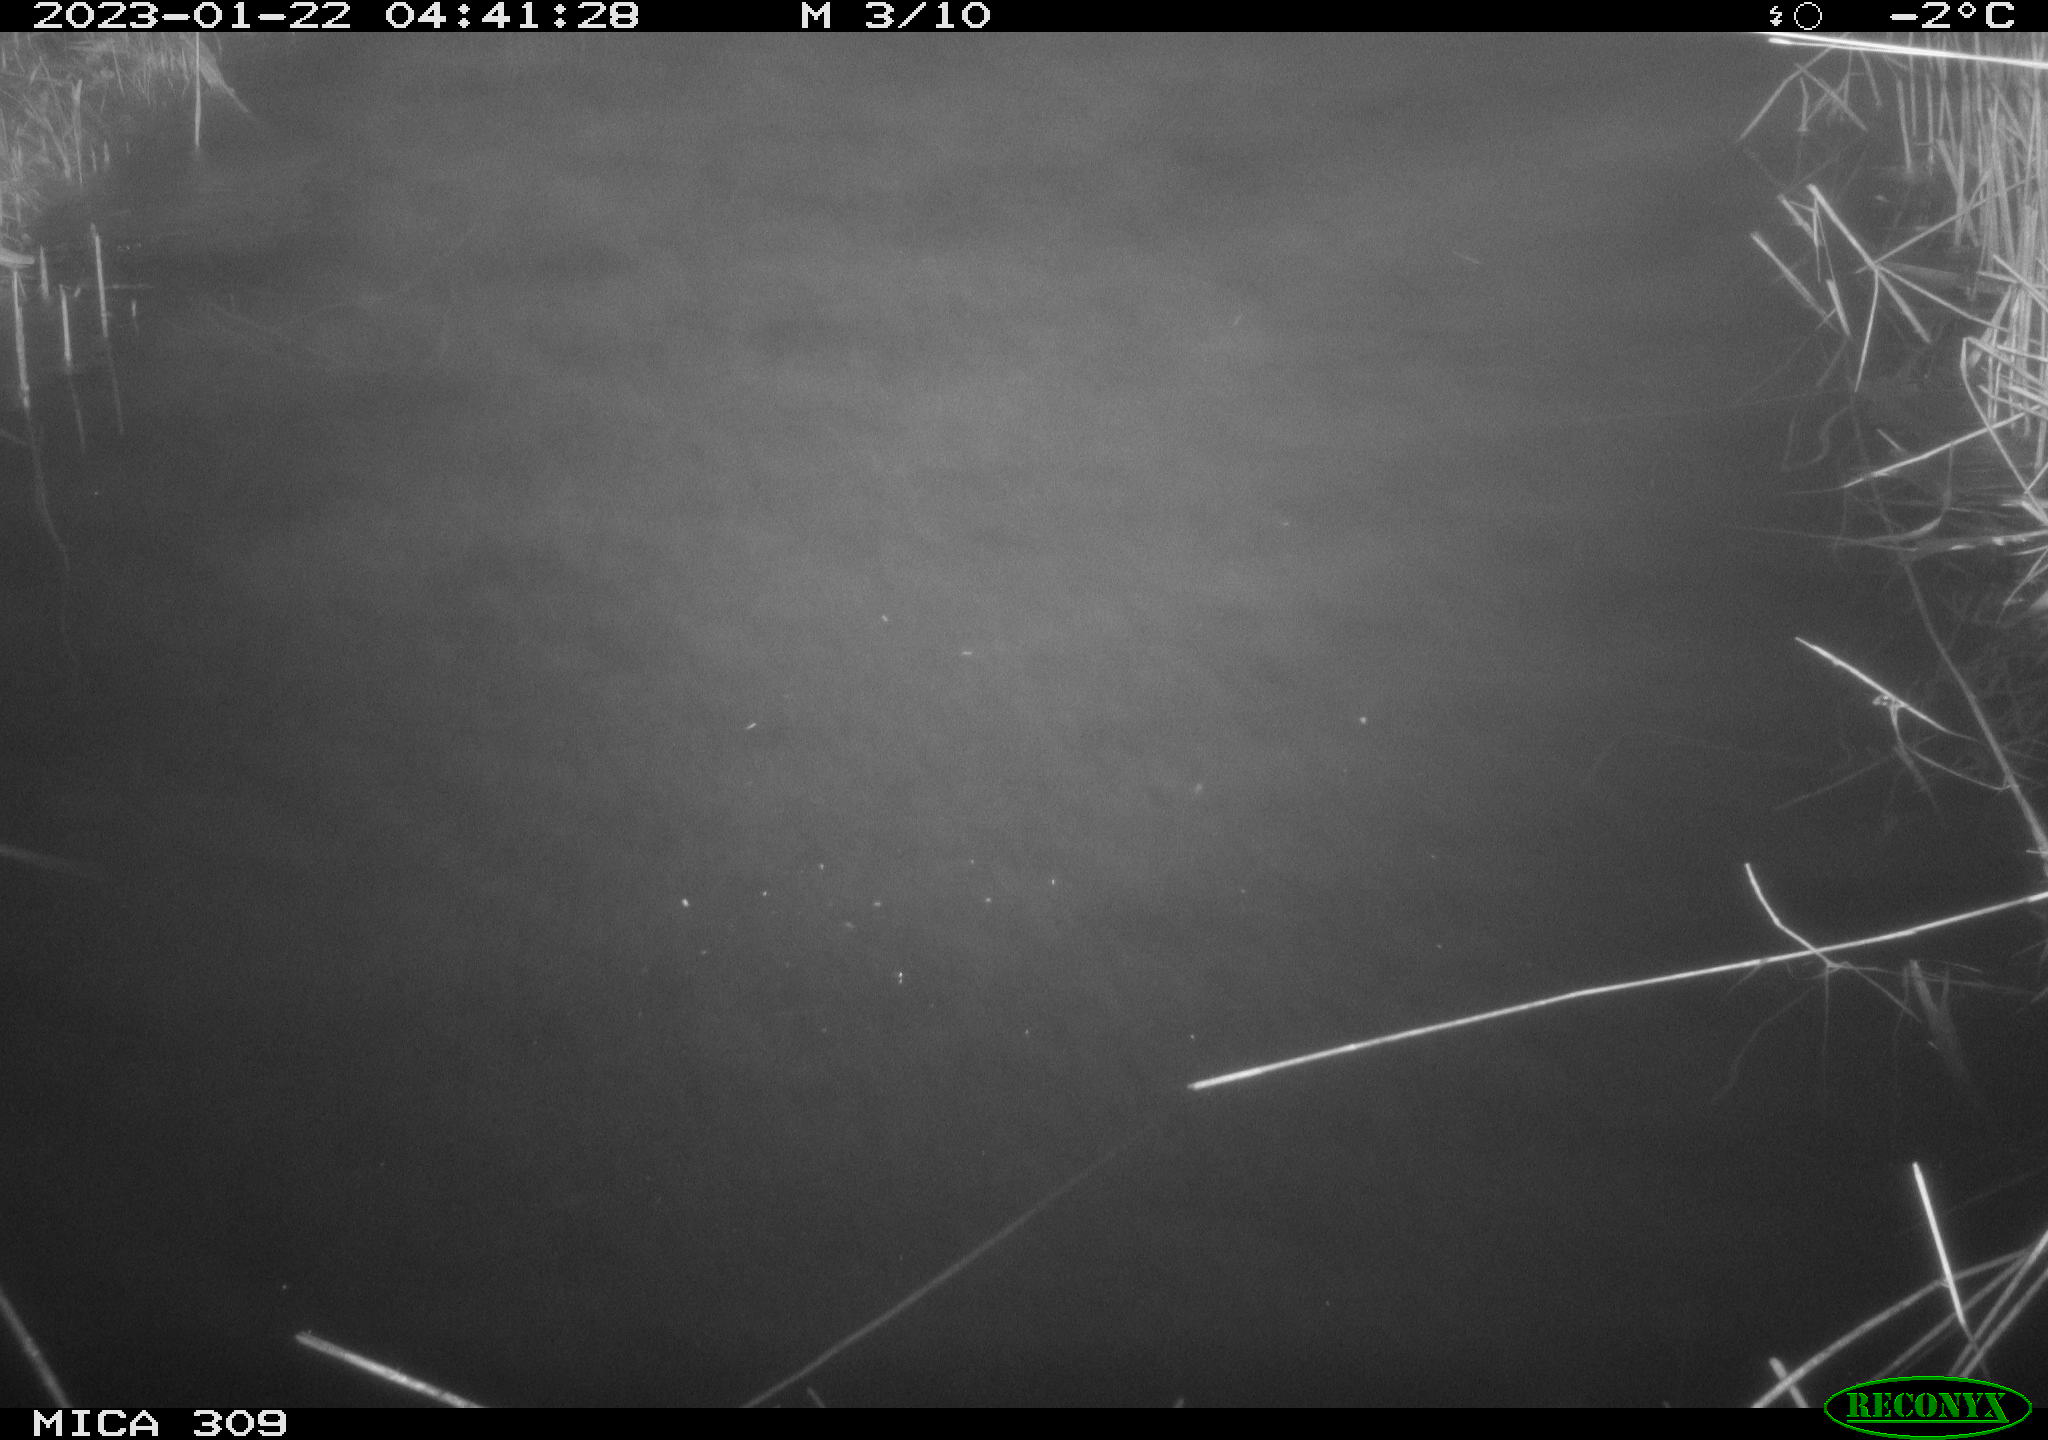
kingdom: Animalia
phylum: Chordata
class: Mammalia
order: Rodentia
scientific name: Rodentia
